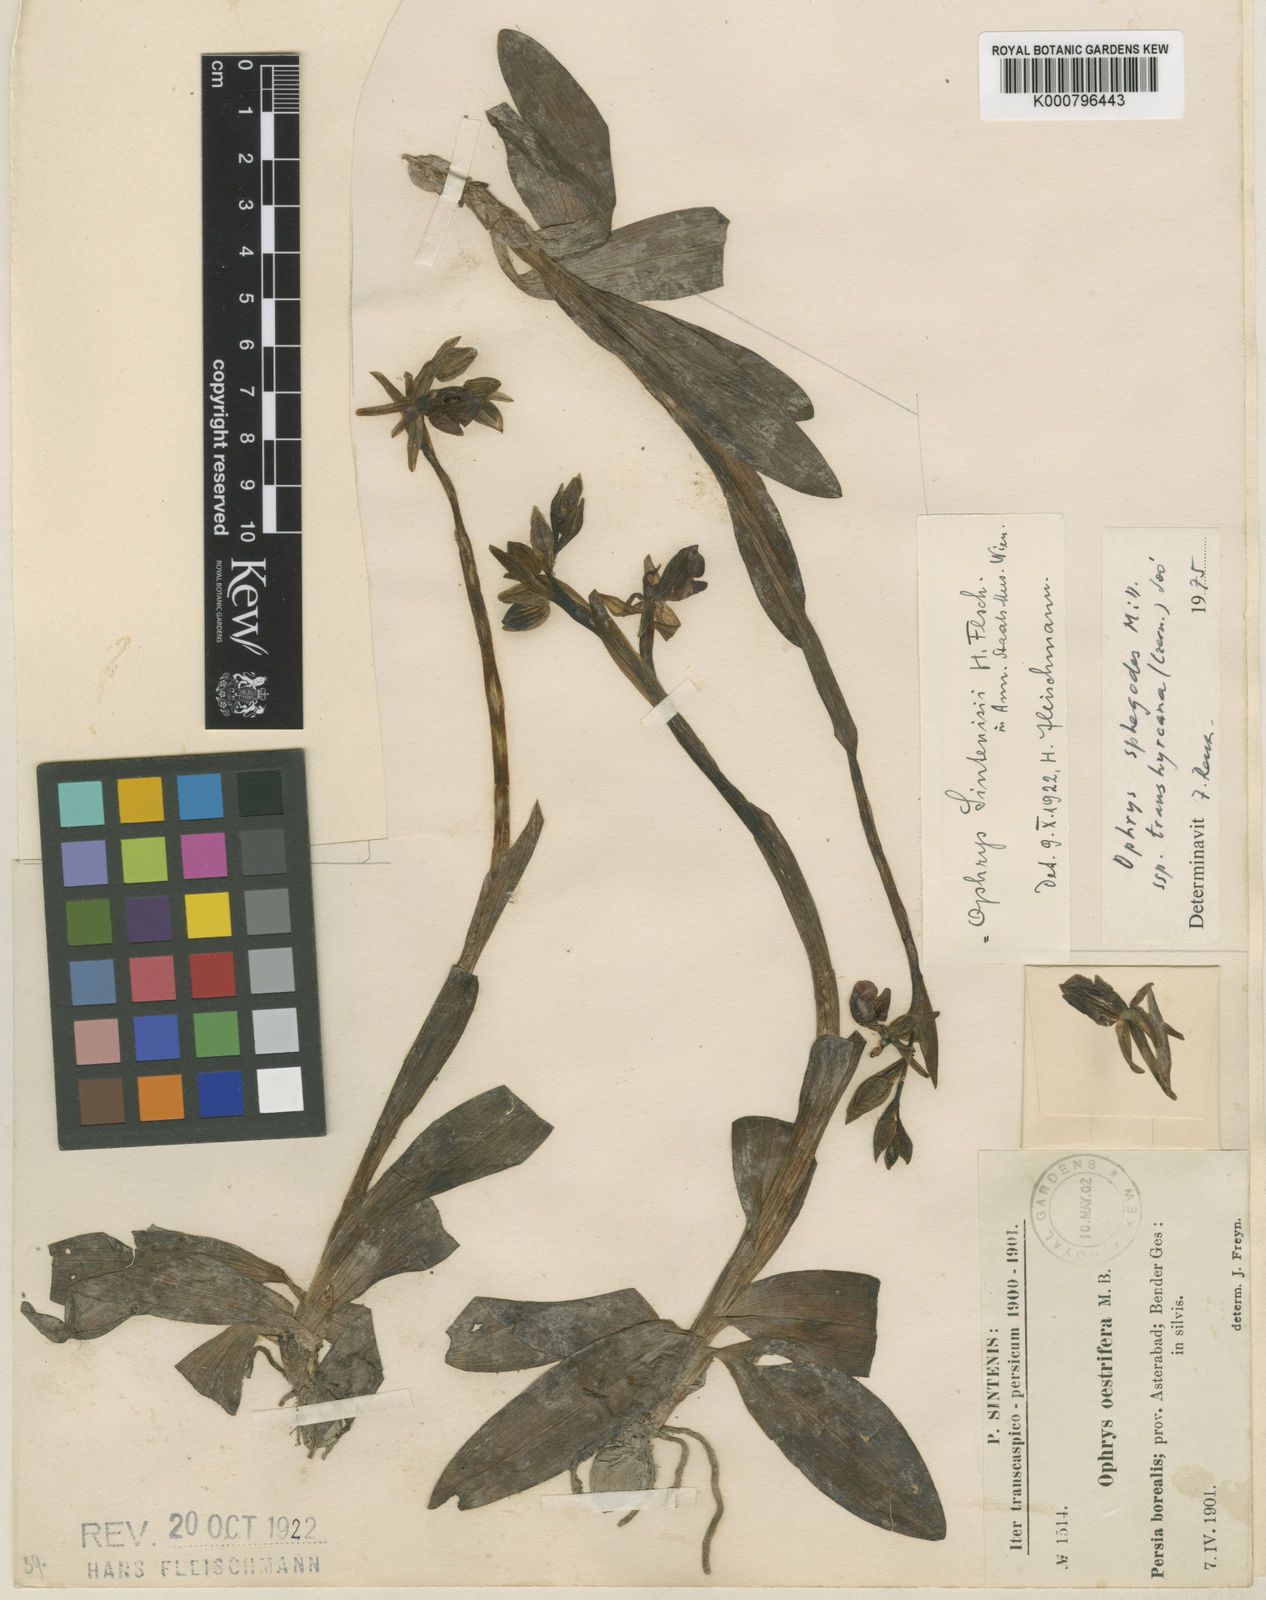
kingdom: Plantae
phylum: Tracheophyta
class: Liliopsida
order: Asparagales
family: Orchidaceae
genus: Ophrys
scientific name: Ophrys sphegodes
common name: Early spider-orchid
